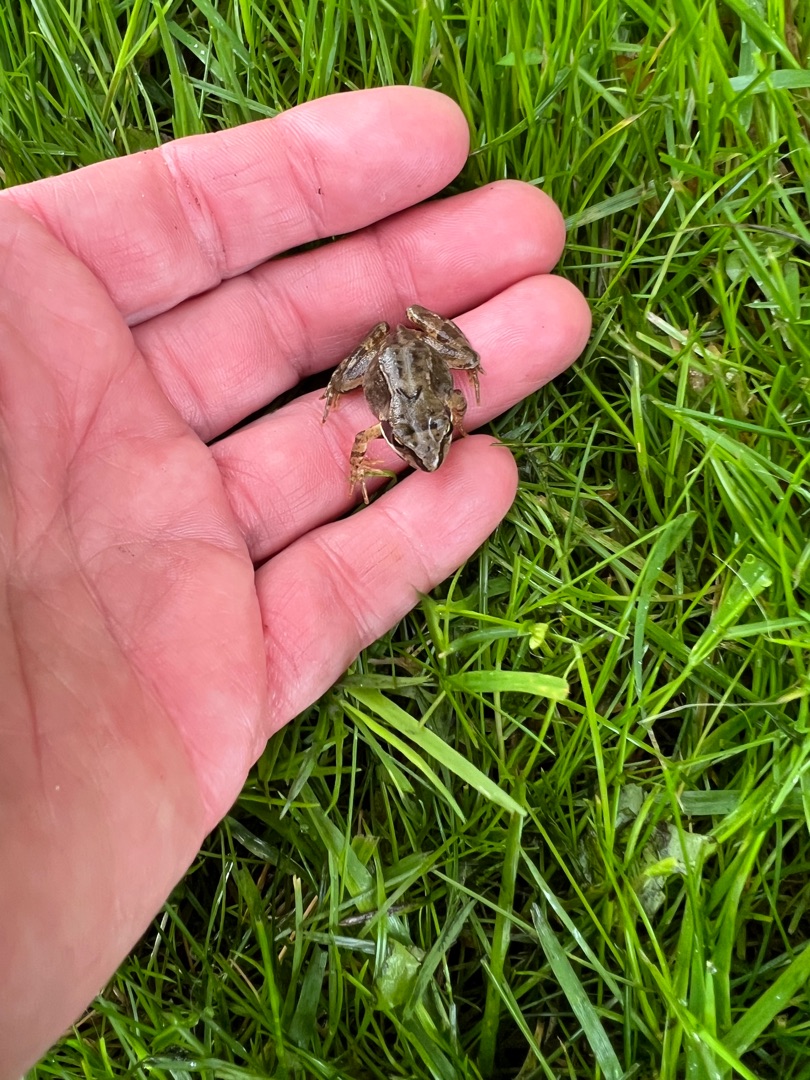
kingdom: Animalia
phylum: Chordata
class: Amphibia
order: Anura
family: Ranidae
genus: Rana
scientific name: Rana temporaria
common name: Butsnudet frø
